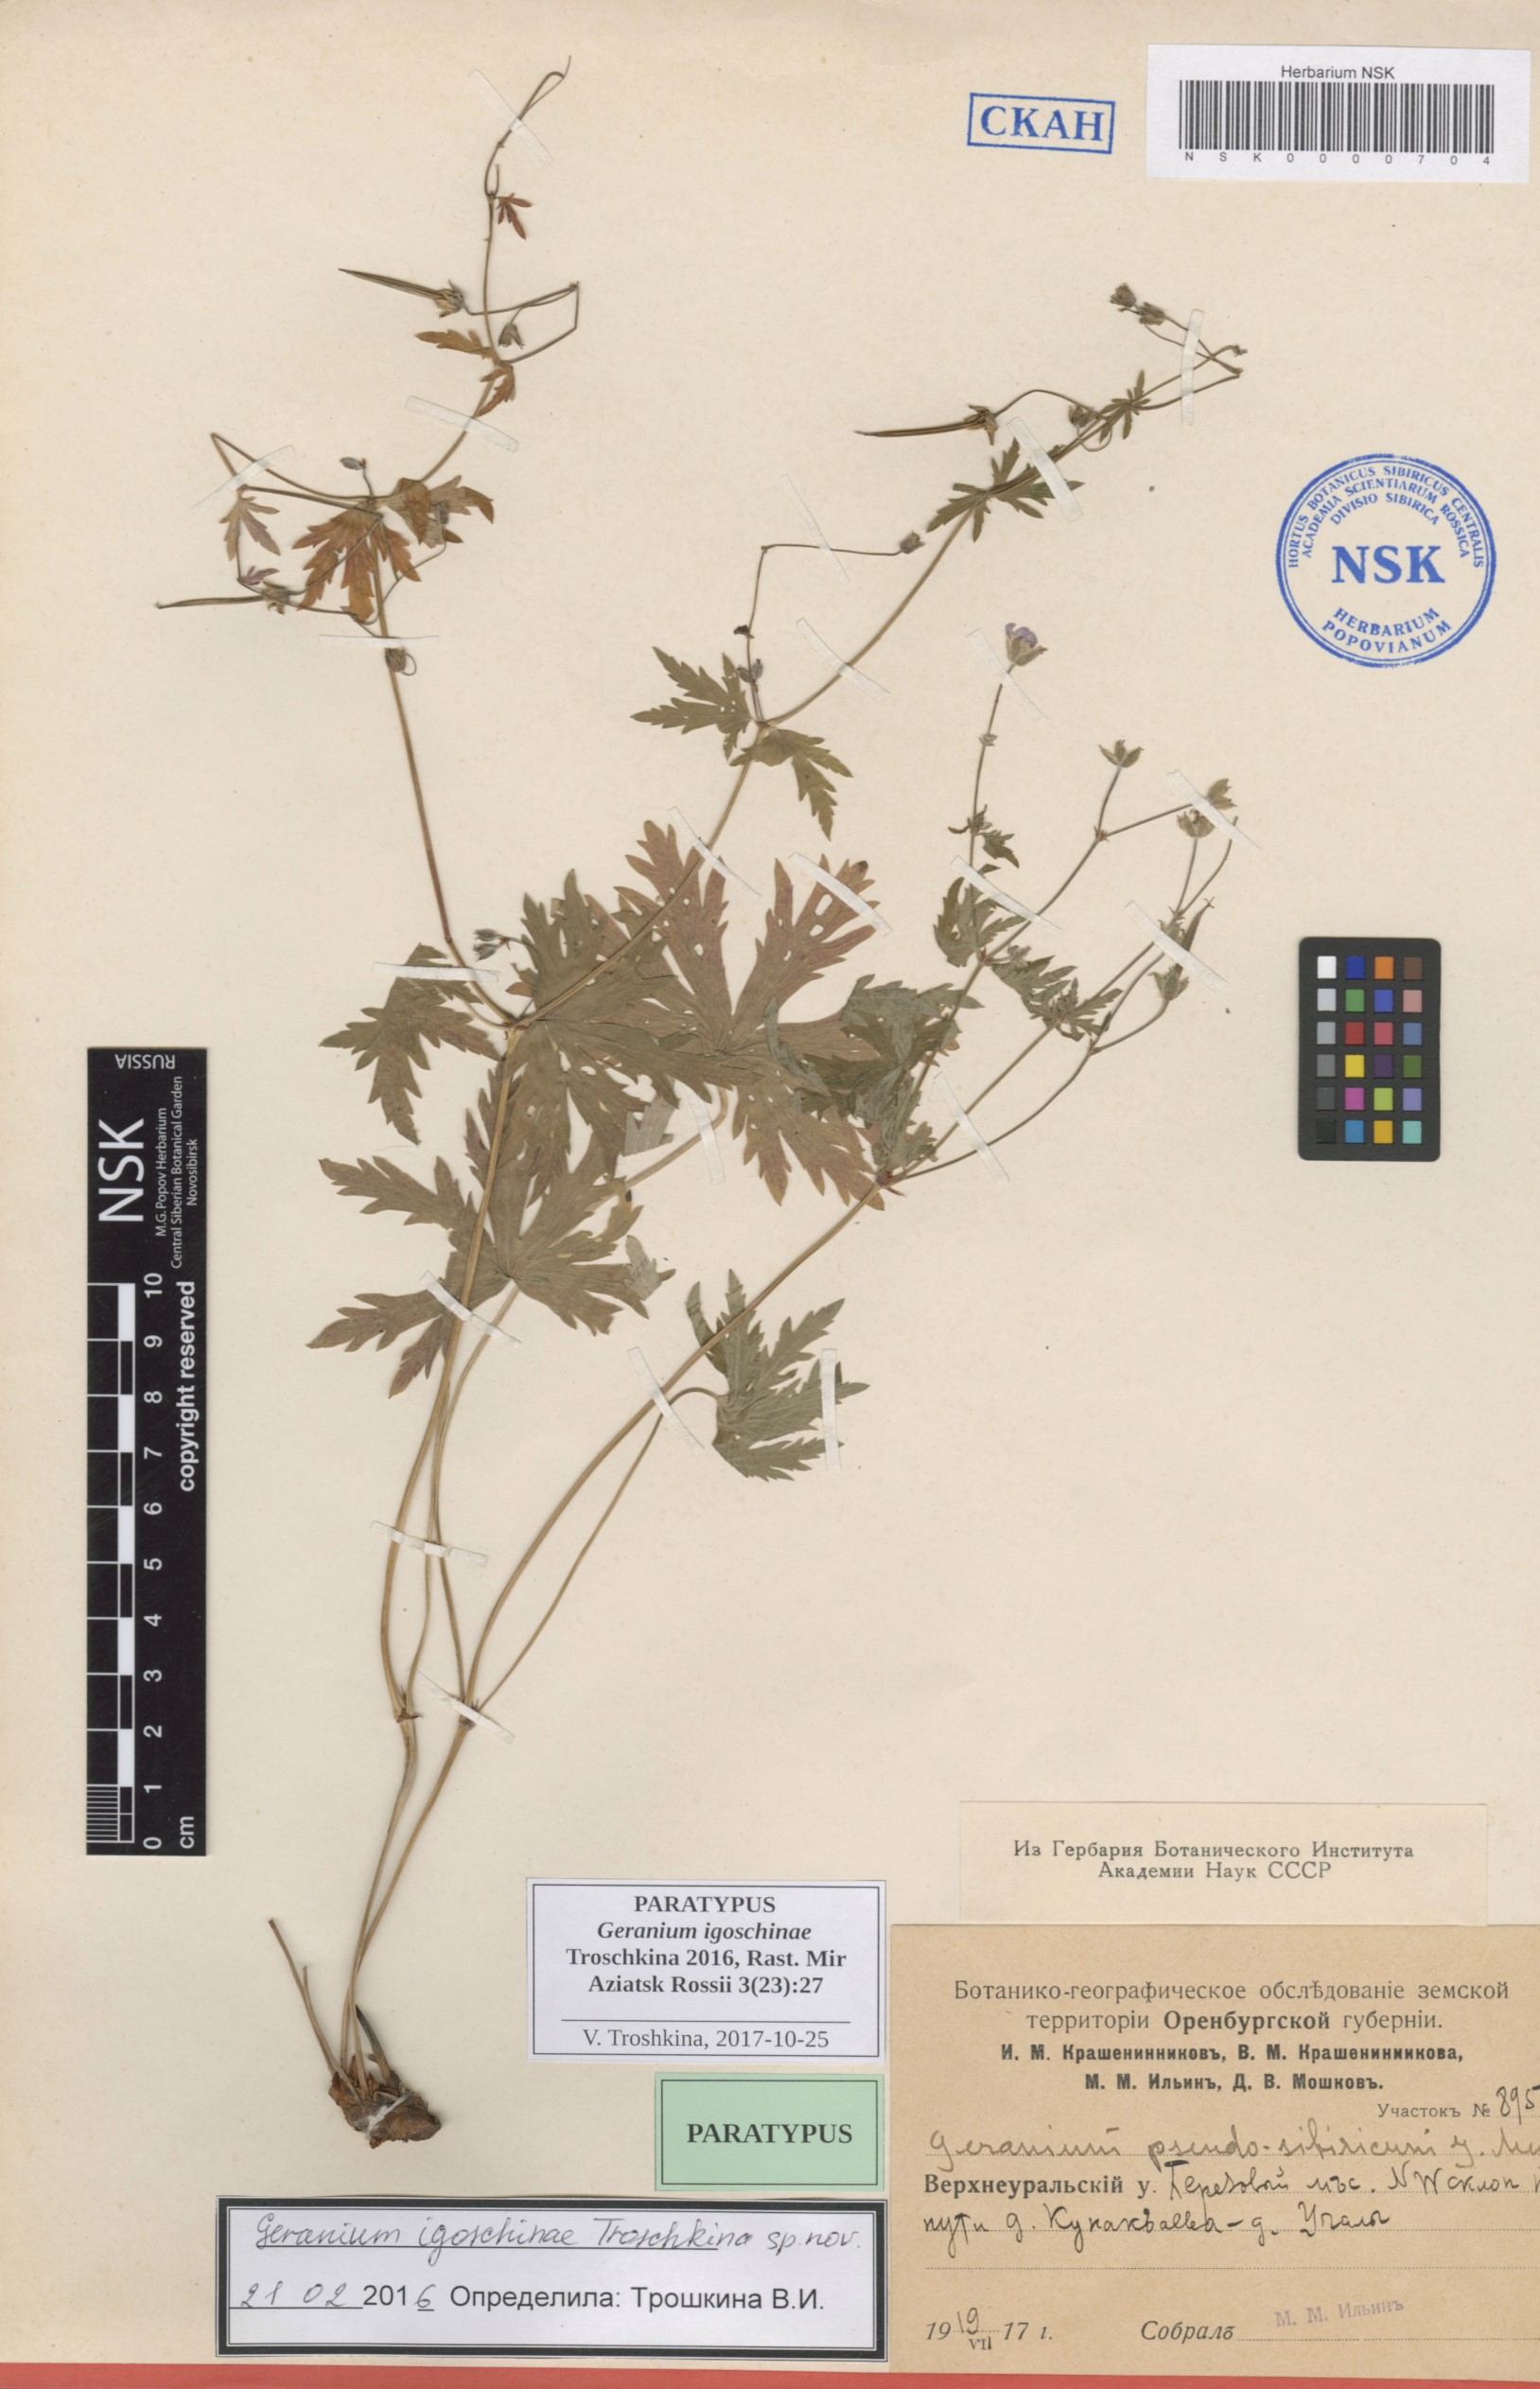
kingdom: Plantae
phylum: Tracheophyta
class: Magnoliopsida
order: Geraniales
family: Geraniaceae
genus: Geranium
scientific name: Geranium igoschinae
